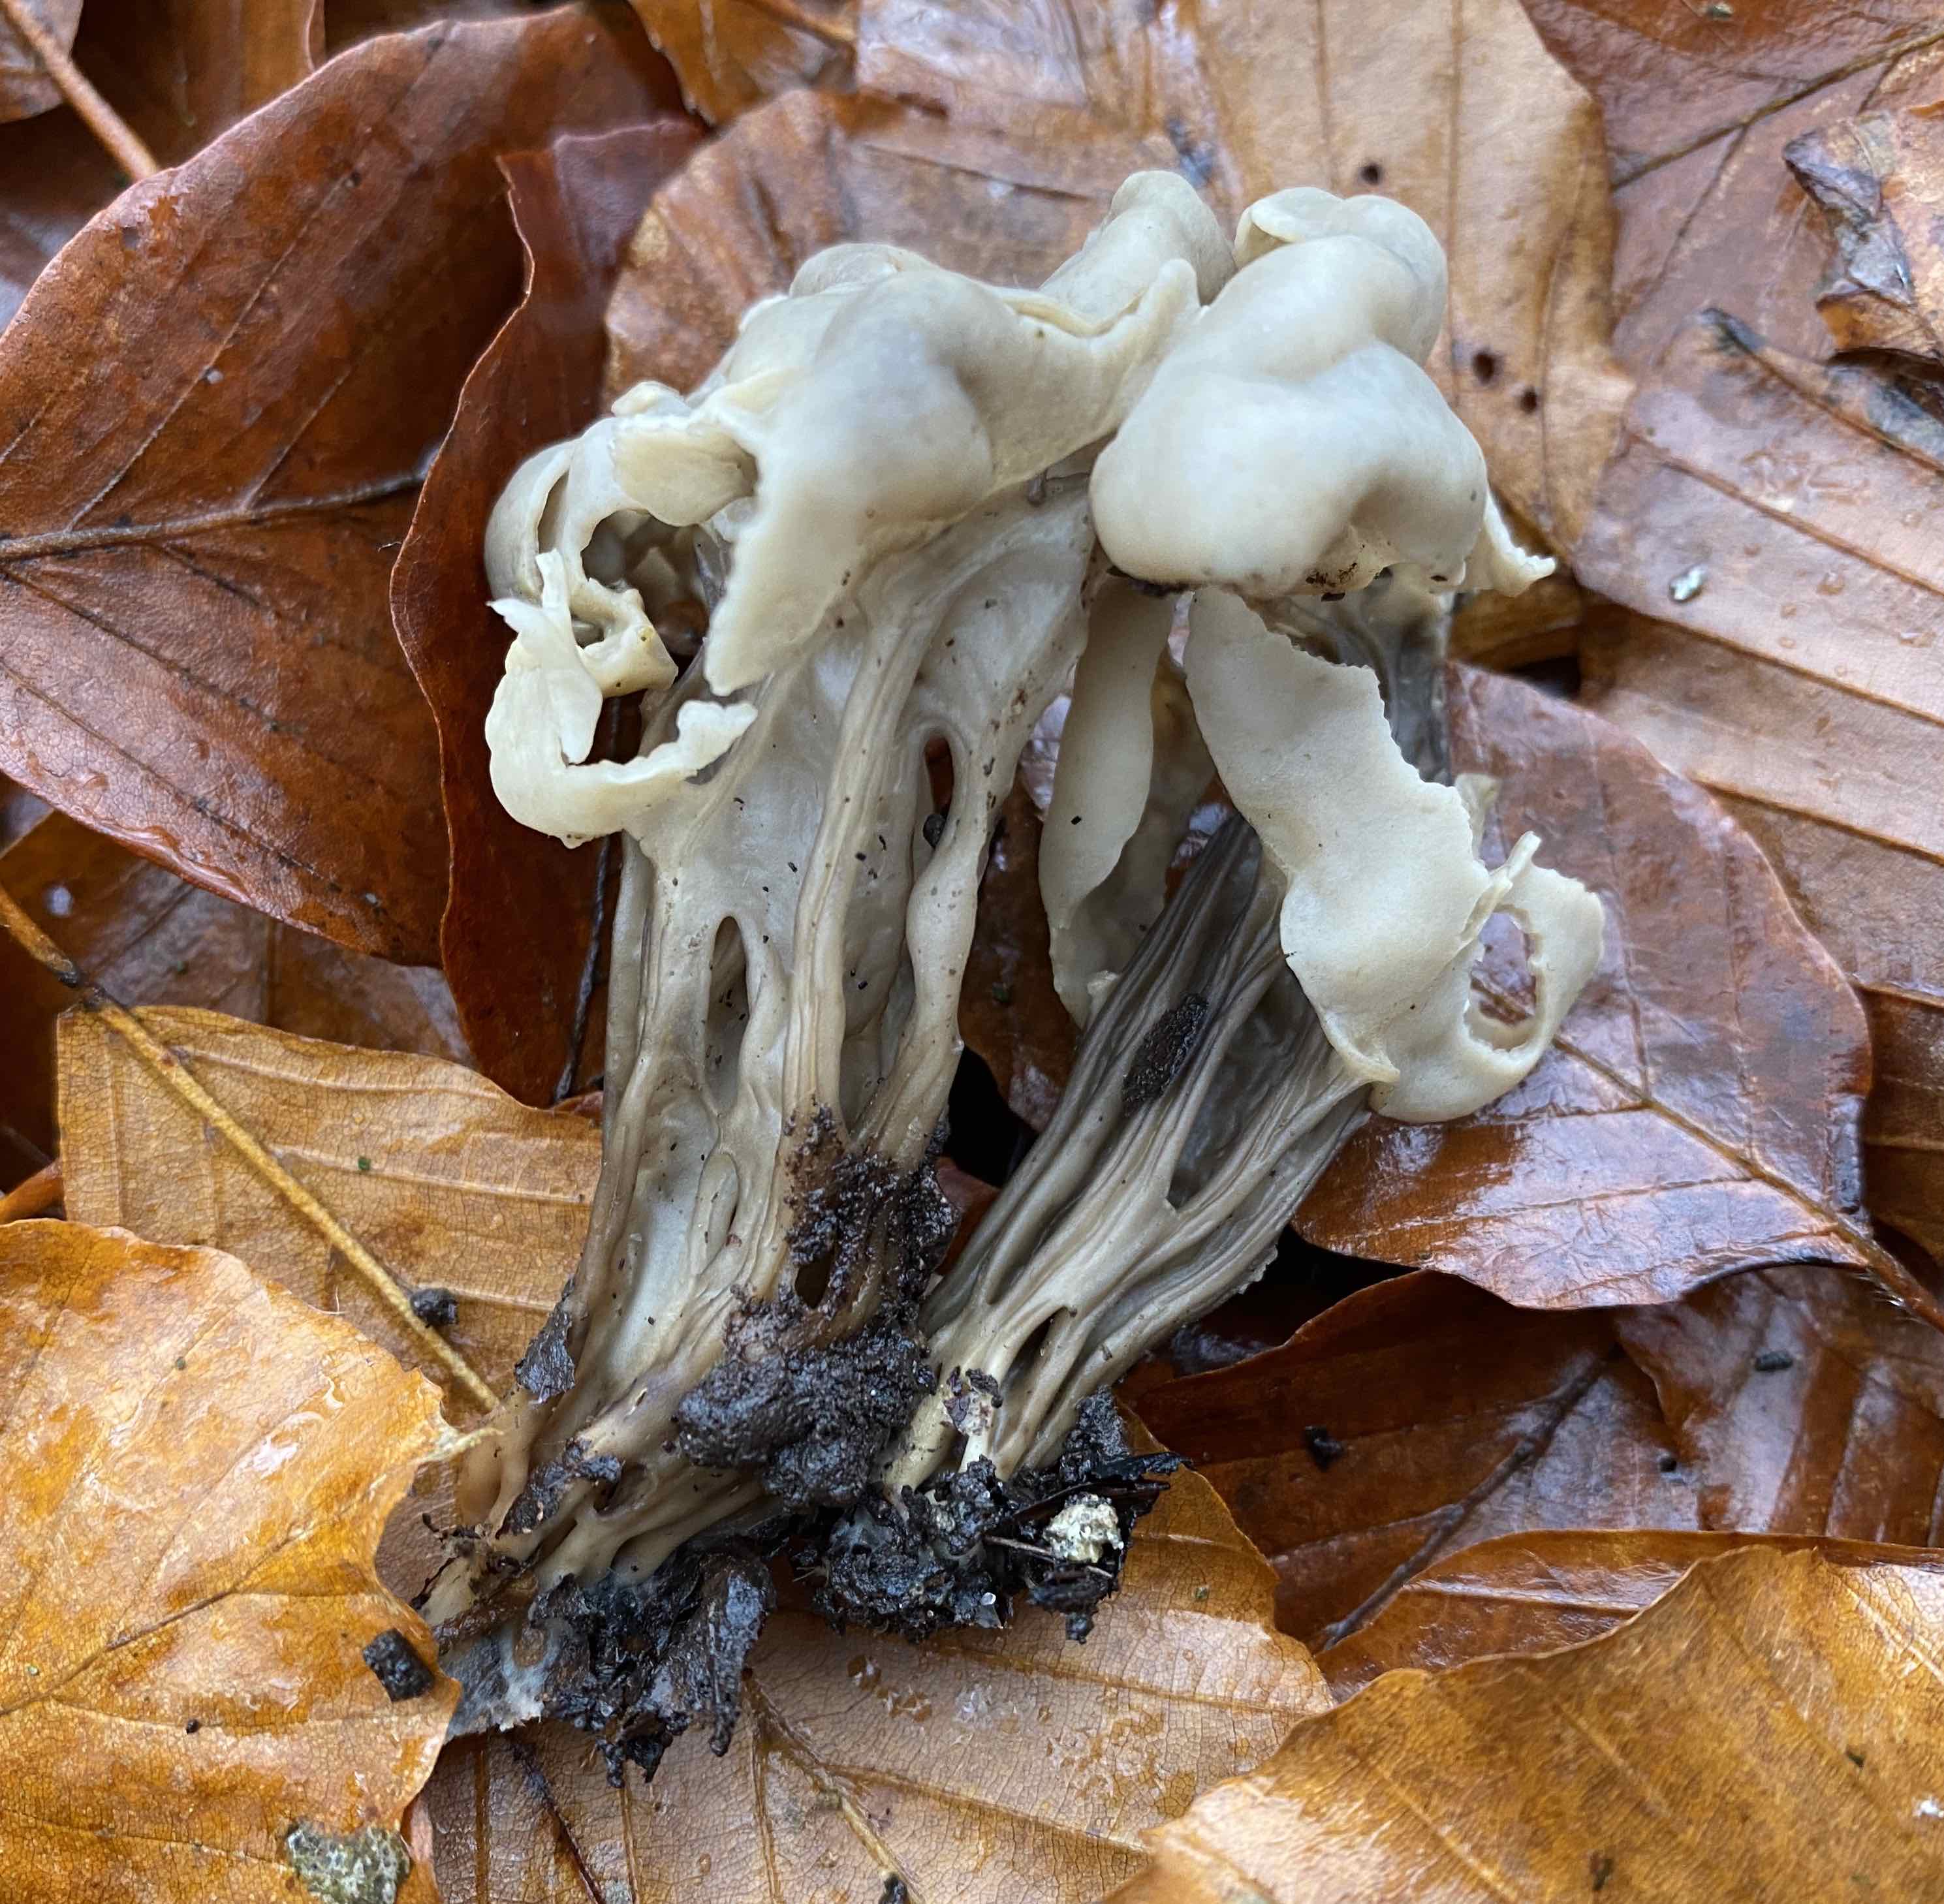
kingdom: Fungi
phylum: Ascomycota
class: Pezizomycetes
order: Pezizales
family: Helvellaceae
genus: Helvella
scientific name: Helvella lacunosa
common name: grubet foldhat
